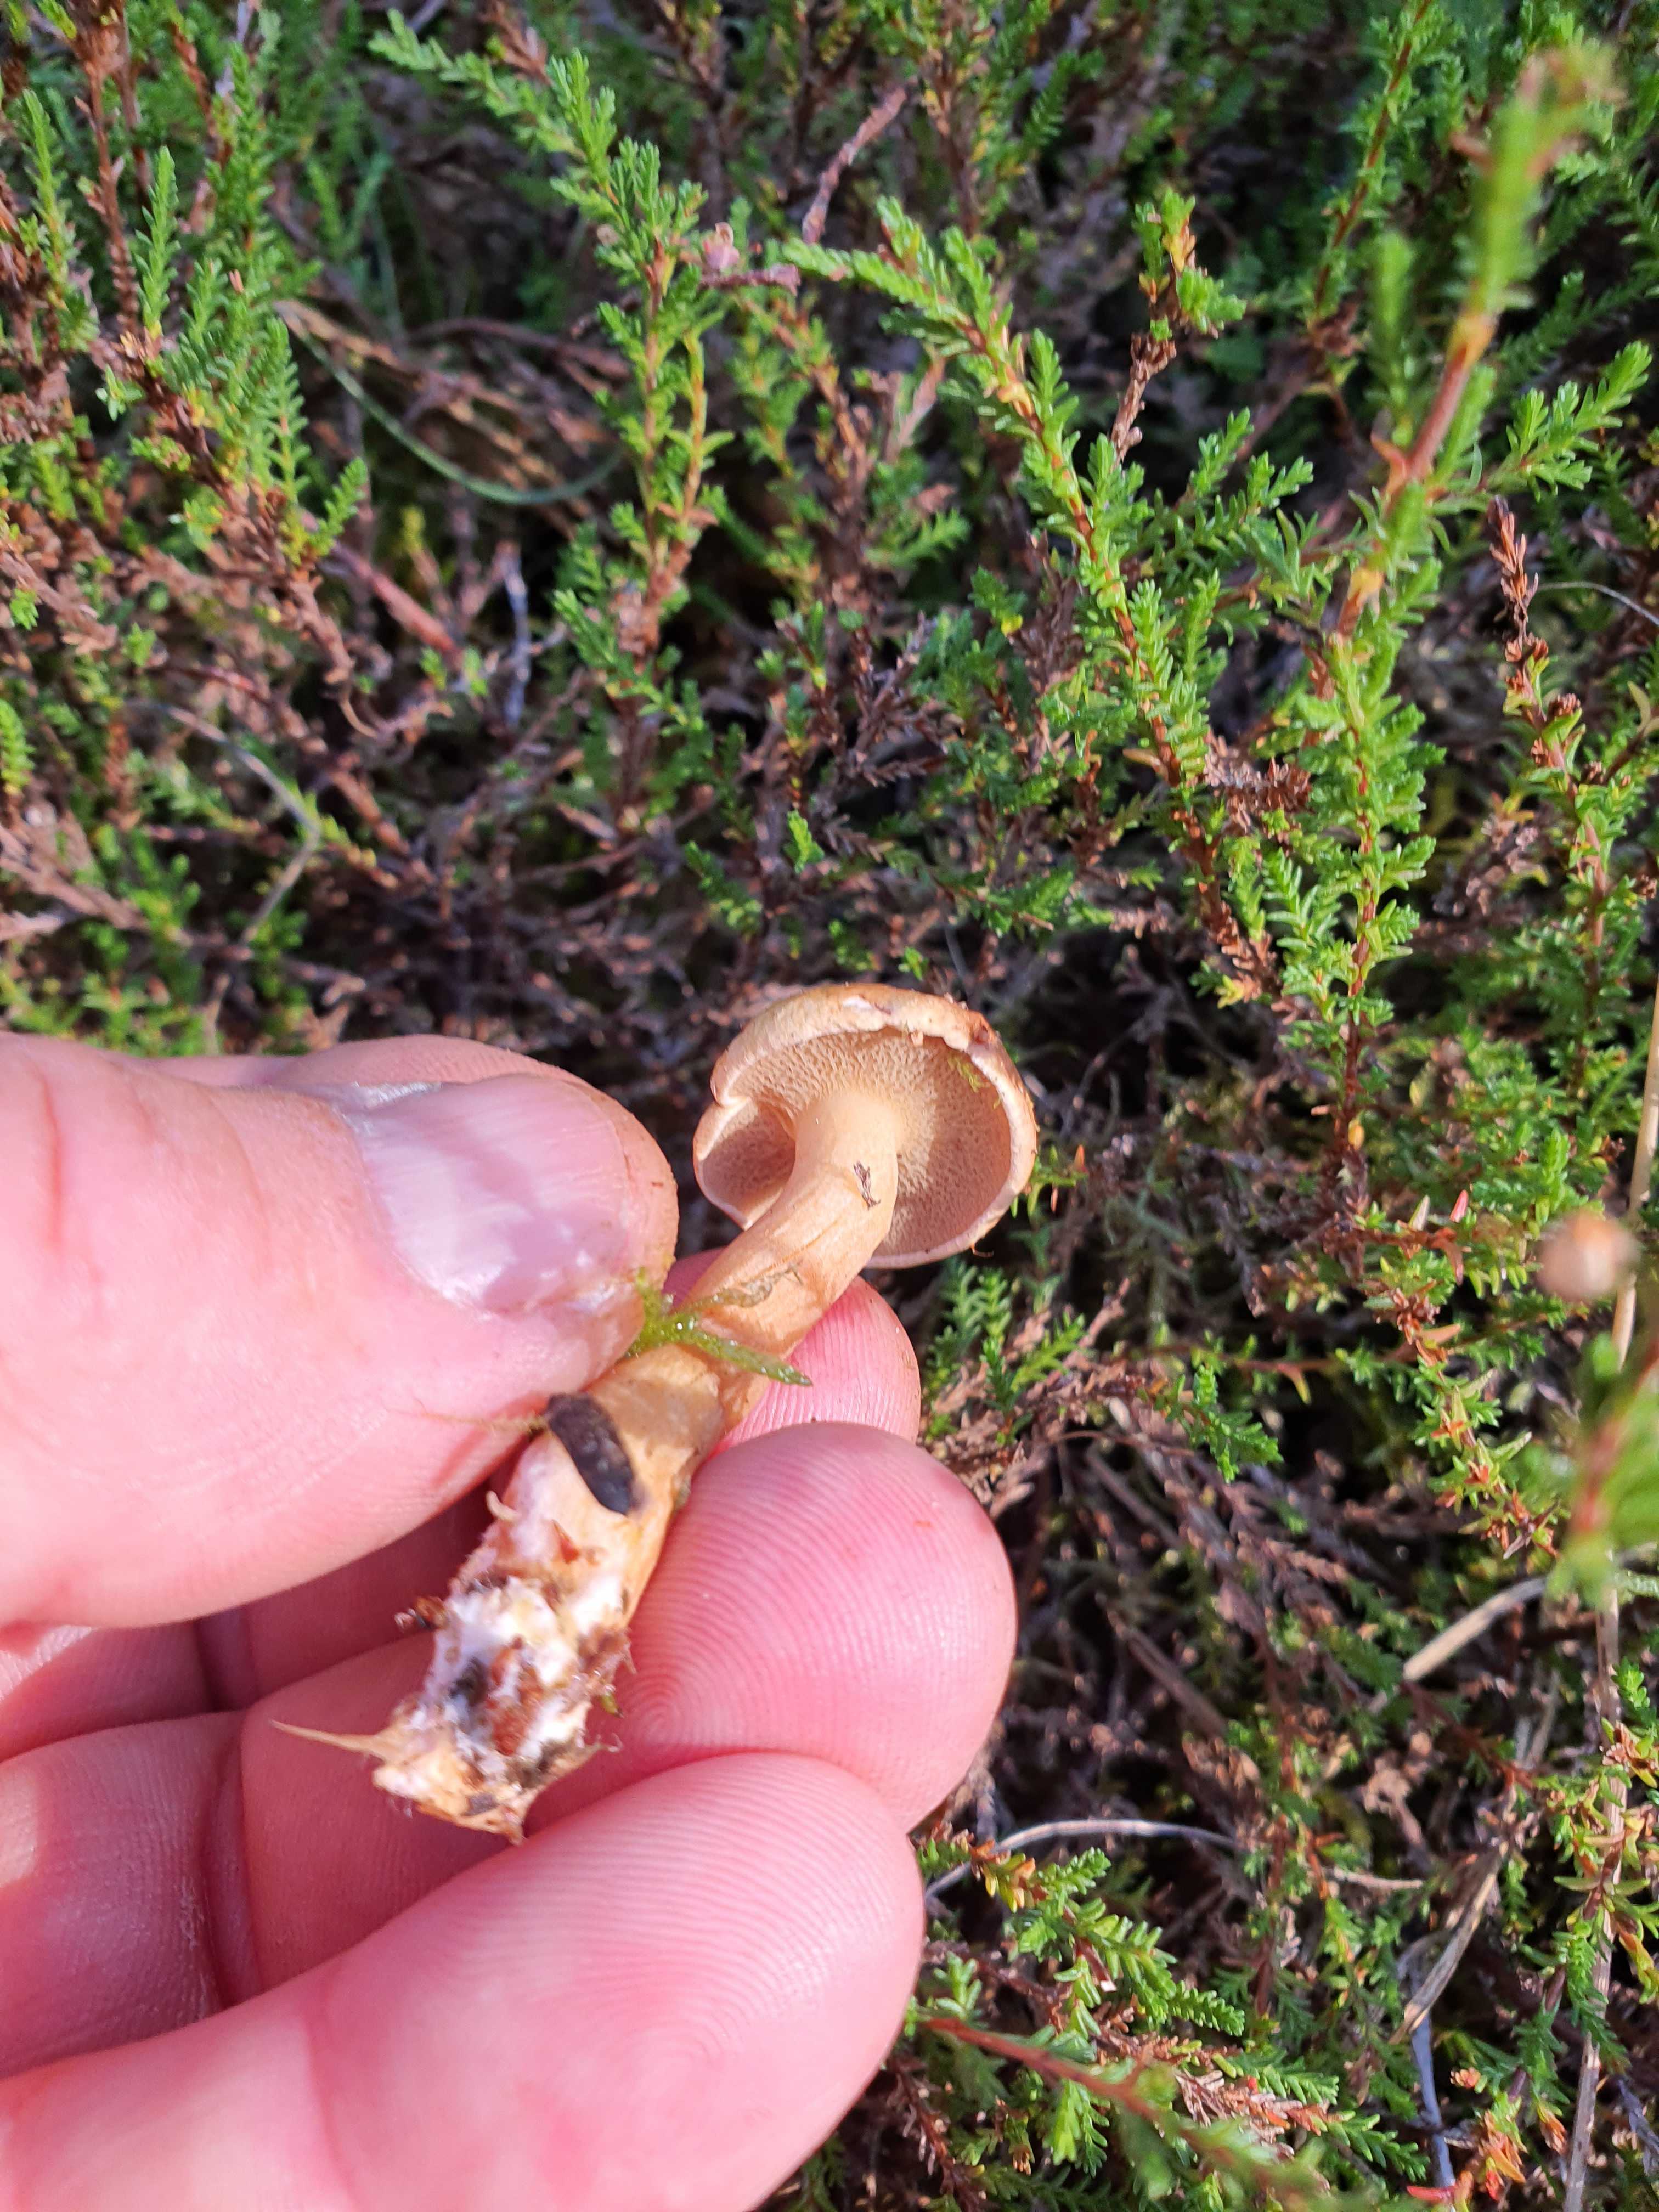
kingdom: Fungi
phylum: Basidiomycota
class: Agaricomycetes
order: Boletales
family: Suillaceae
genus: Suillus
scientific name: Suillus bovinus
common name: grovporet slimrørhat
